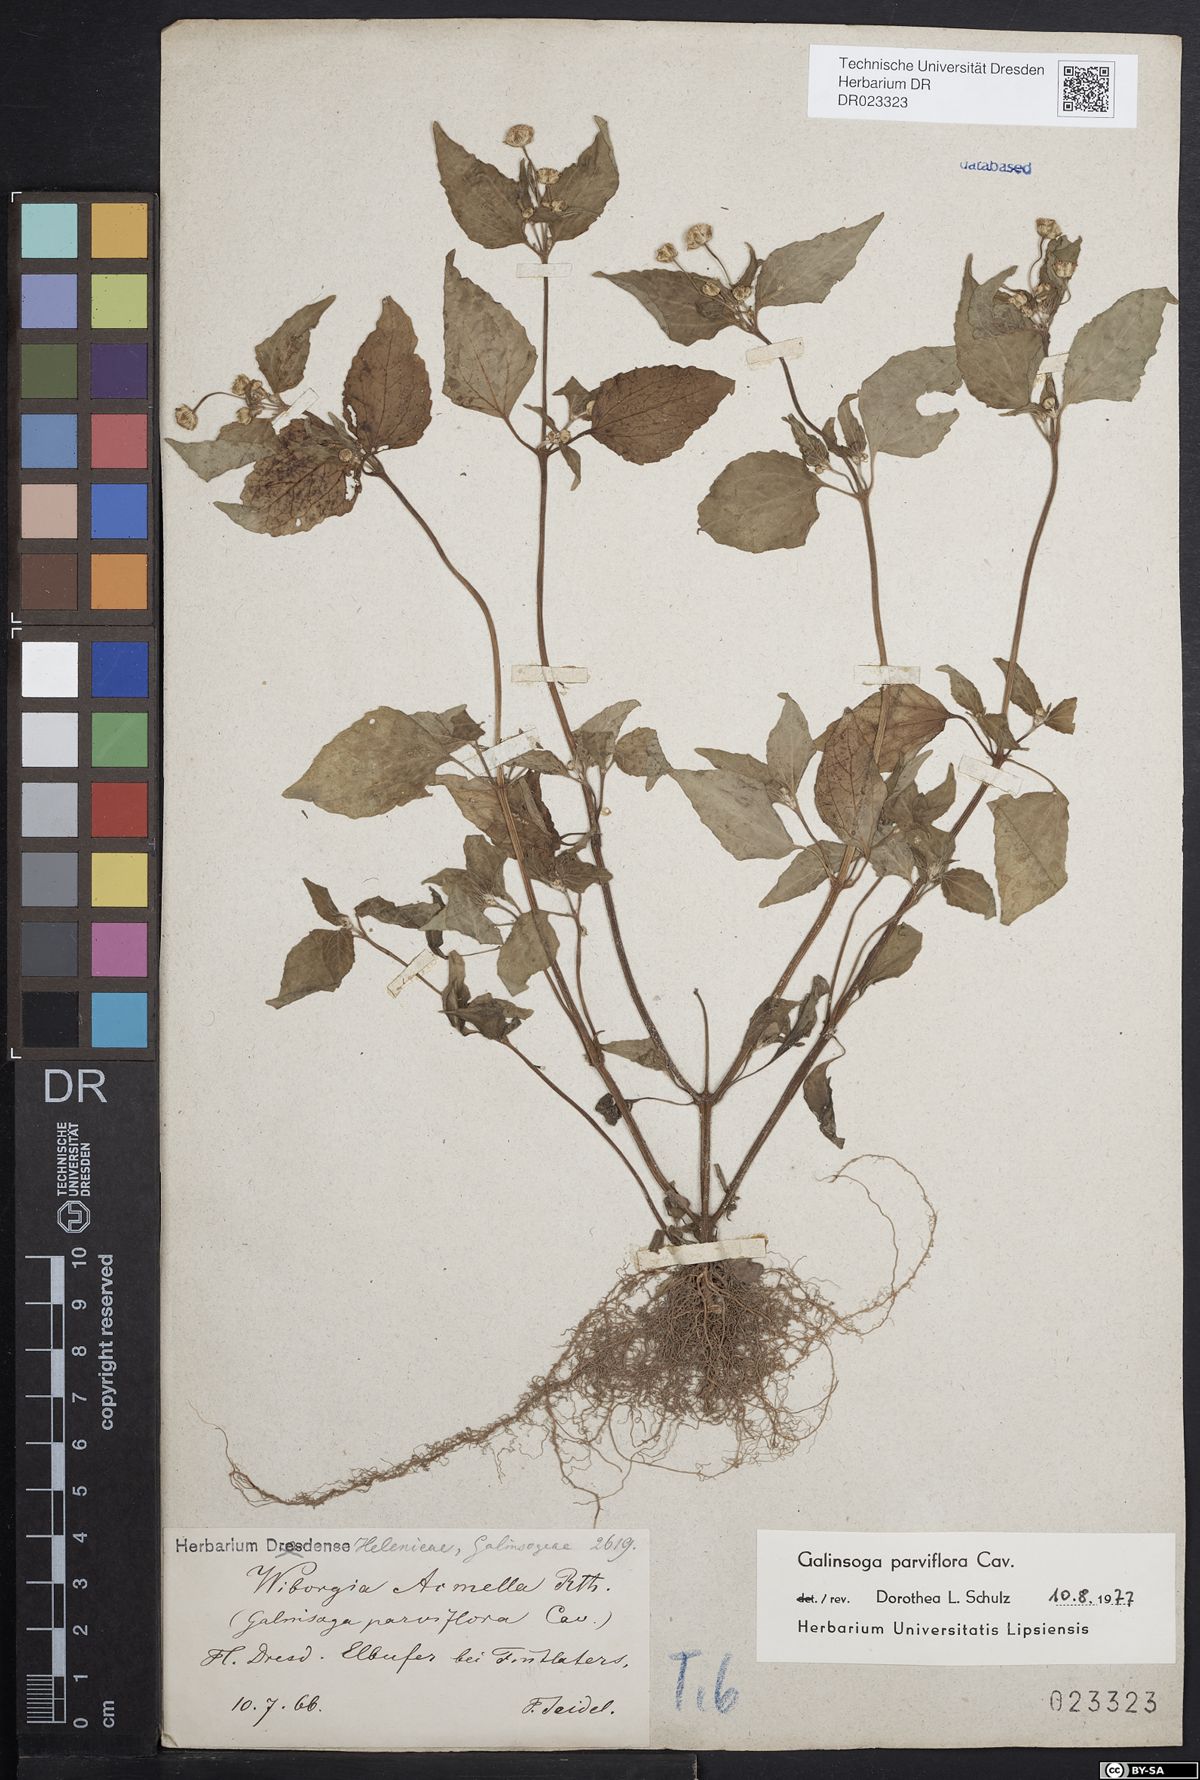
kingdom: Plantae
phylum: Tracheophyta
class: Magnoliopsida
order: Asterales
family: Asteraceae
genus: Galinsoga
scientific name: Galinsoga parviflora
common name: Gallant soldier
